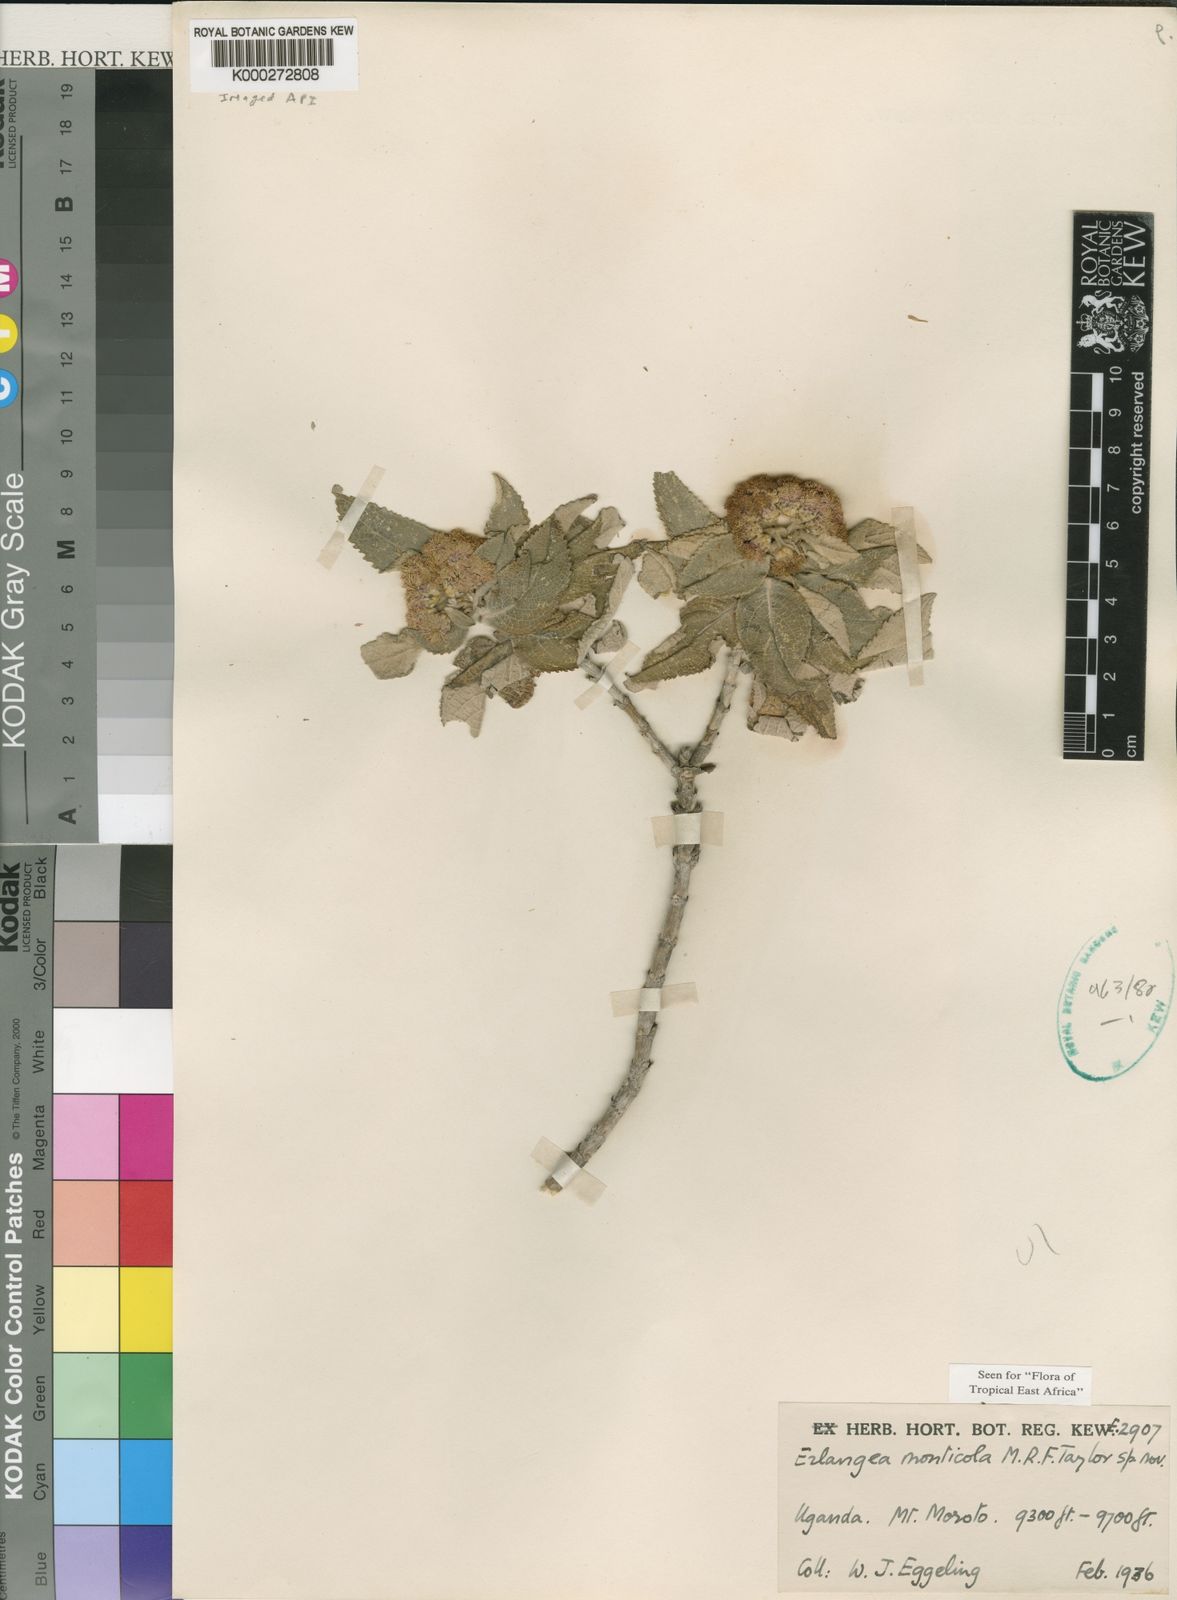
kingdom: Plantae
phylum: Tracheophyta
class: Magnoliopsida
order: Asterales
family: Asteraceae
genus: Bothriocline
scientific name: Bothriocline monticola
